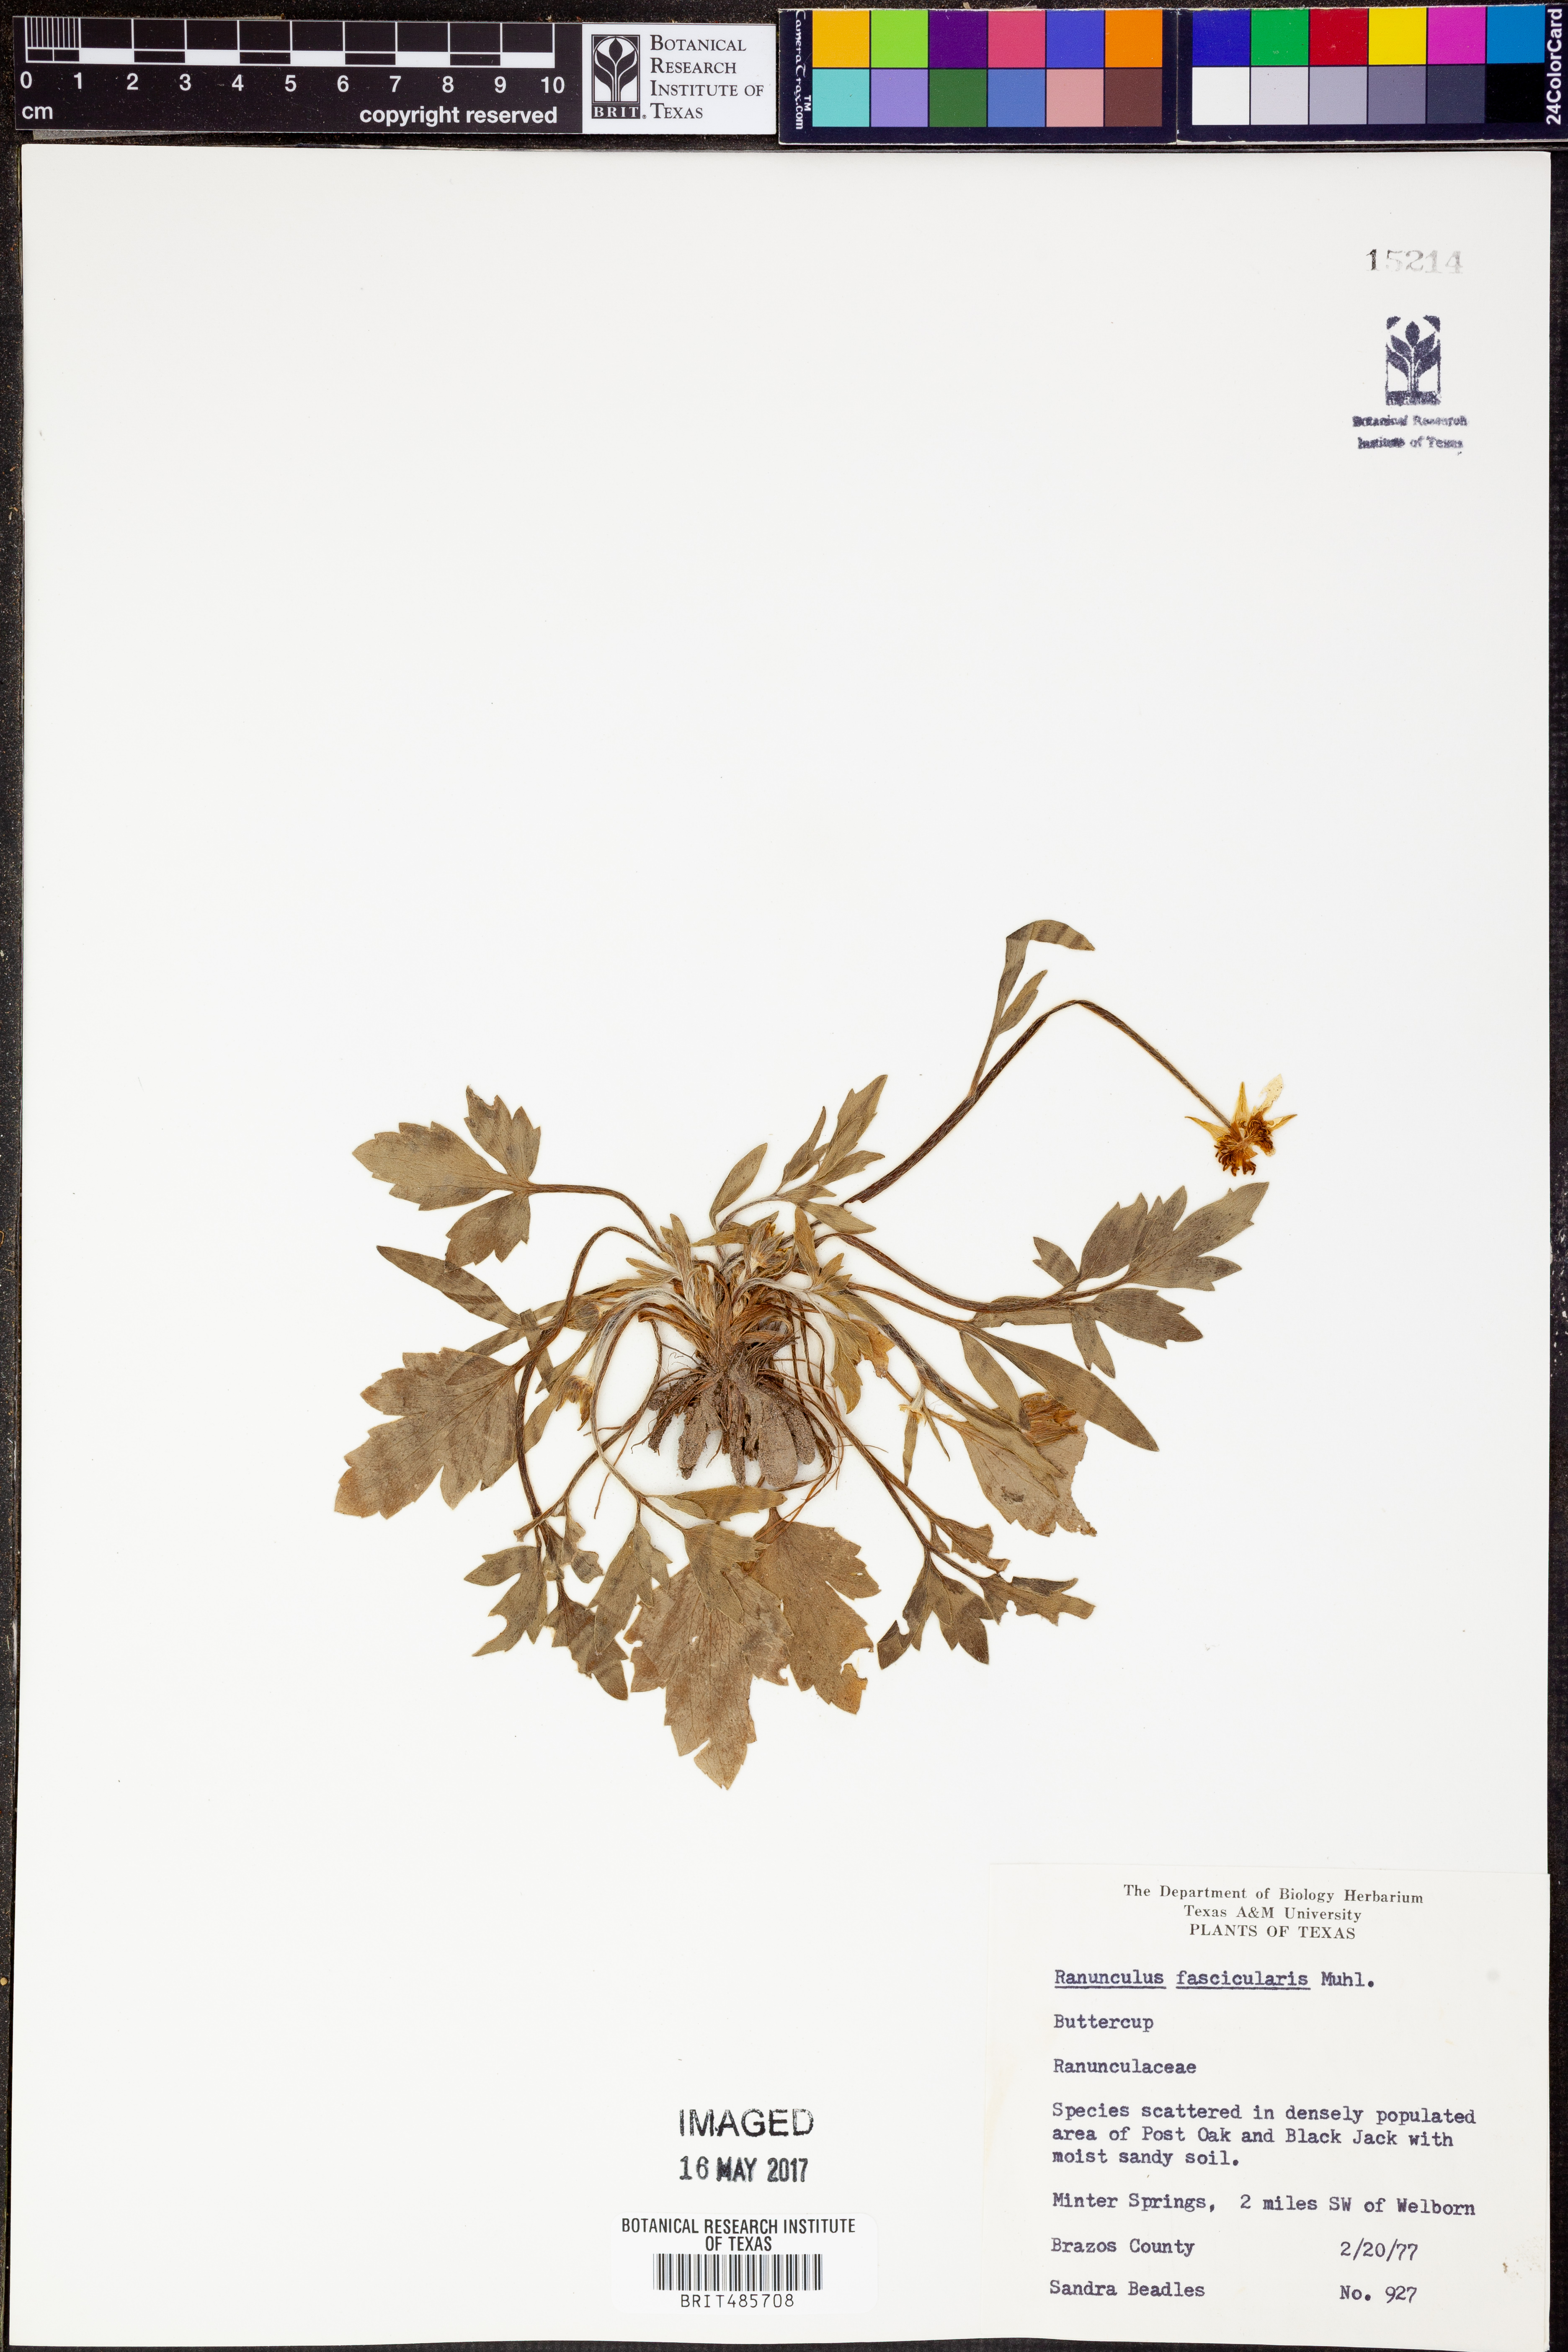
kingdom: Plantae
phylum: Tracheophyta
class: Magnoliopsida
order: Ranunculales
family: Ranunculaceae
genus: Ranunculus
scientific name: Ranunculus fascicularis
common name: Early buttercup
